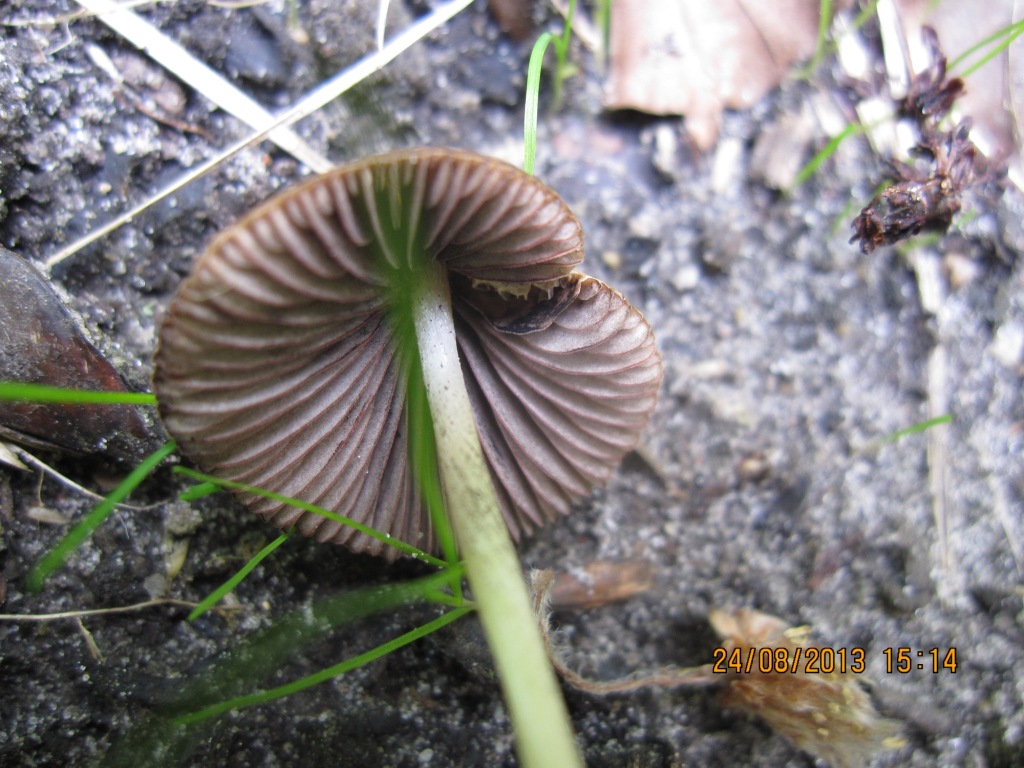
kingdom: Fungi
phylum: Basidiomycota
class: Agaricomycetes
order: Agaricales
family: Psathyrellaceae
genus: Psathyrella
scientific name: Psathyrella pseudogracilis
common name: slank mørkhat
